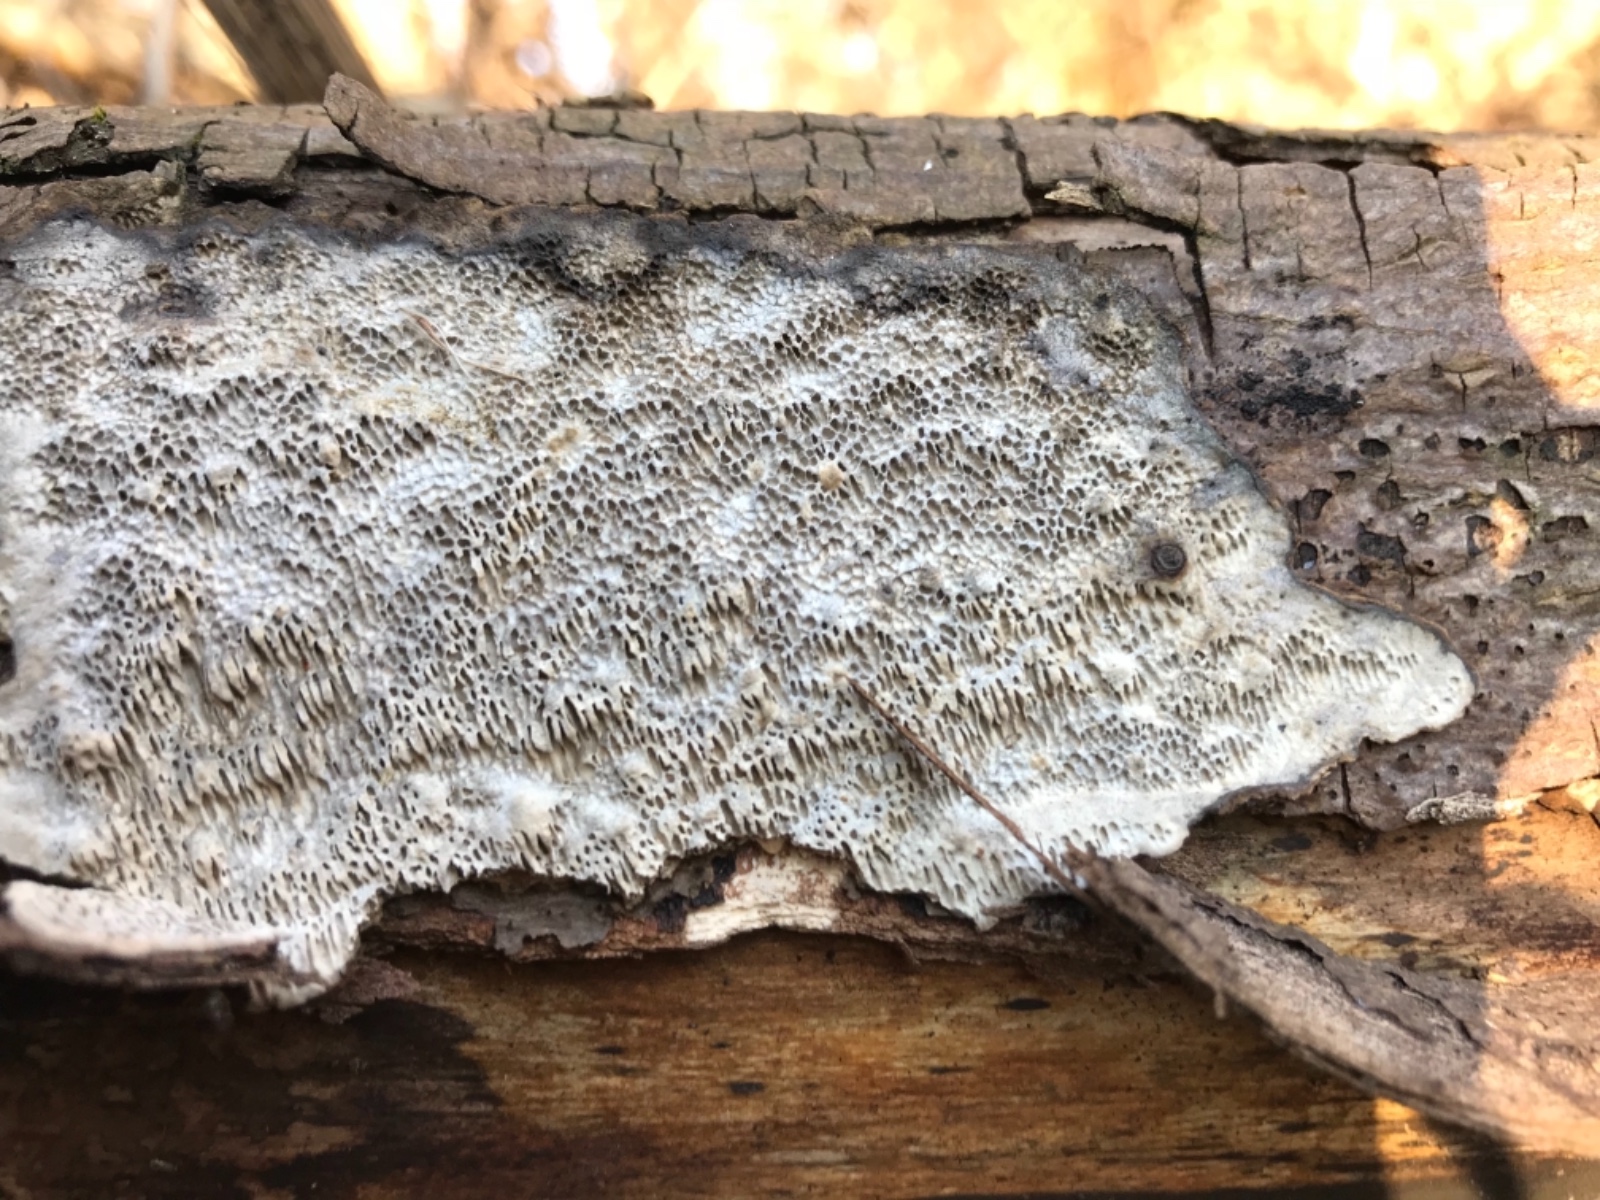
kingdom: Fungi
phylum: Basidiomycota
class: Agaricomycetes
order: Polyporales
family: Polyporaceae
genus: Podofomes
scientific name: Podofomes mollis
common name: blød begporesvamp
